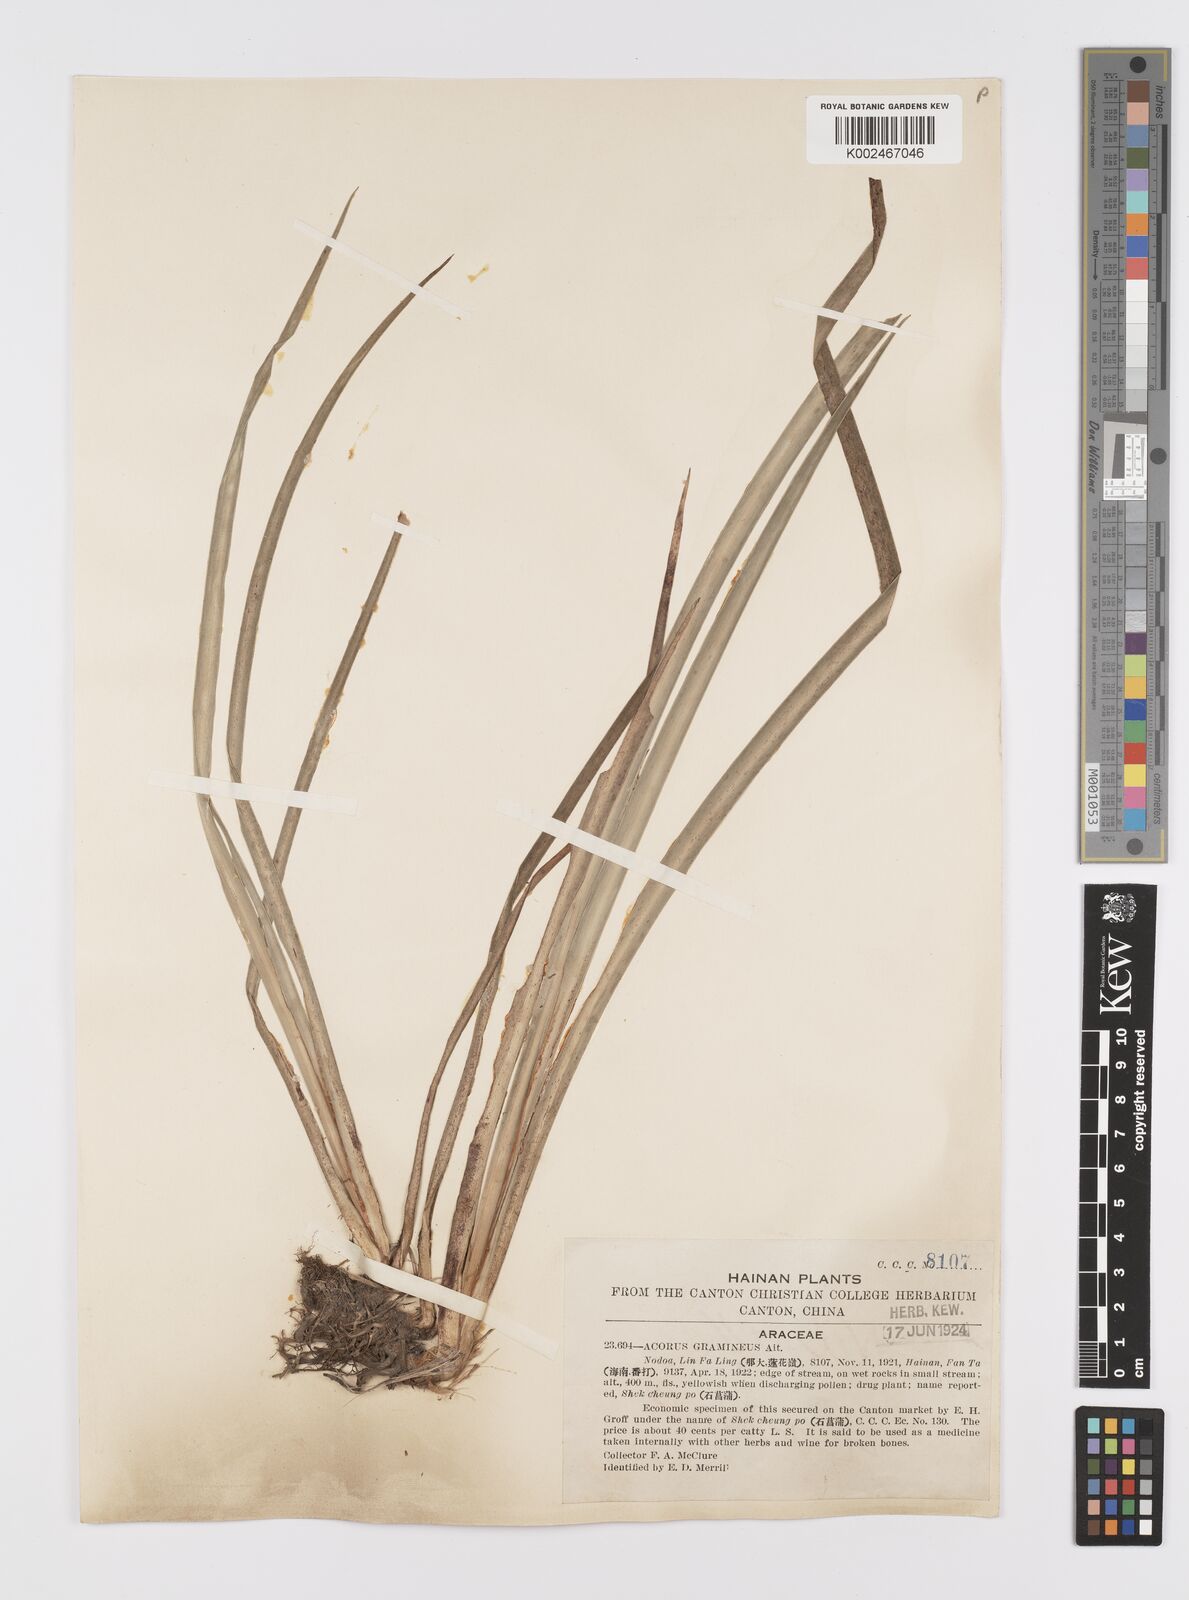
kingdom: Plantae
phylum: Tracheophyta
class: Liliopsida
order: Acorales
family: Acoraceae
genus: Acorus
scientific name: Acorus gramineus
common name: Slender sweet-flag
